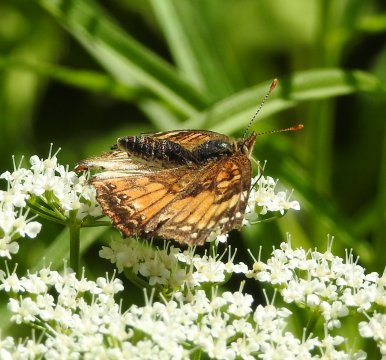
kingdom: Animalia
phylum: Arthropoda
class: Insecta
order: Lepidoptera
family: Nymphalidae
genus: Chlosyne
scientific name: Chlosyne harrisii
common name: Harris's Checkerspot
